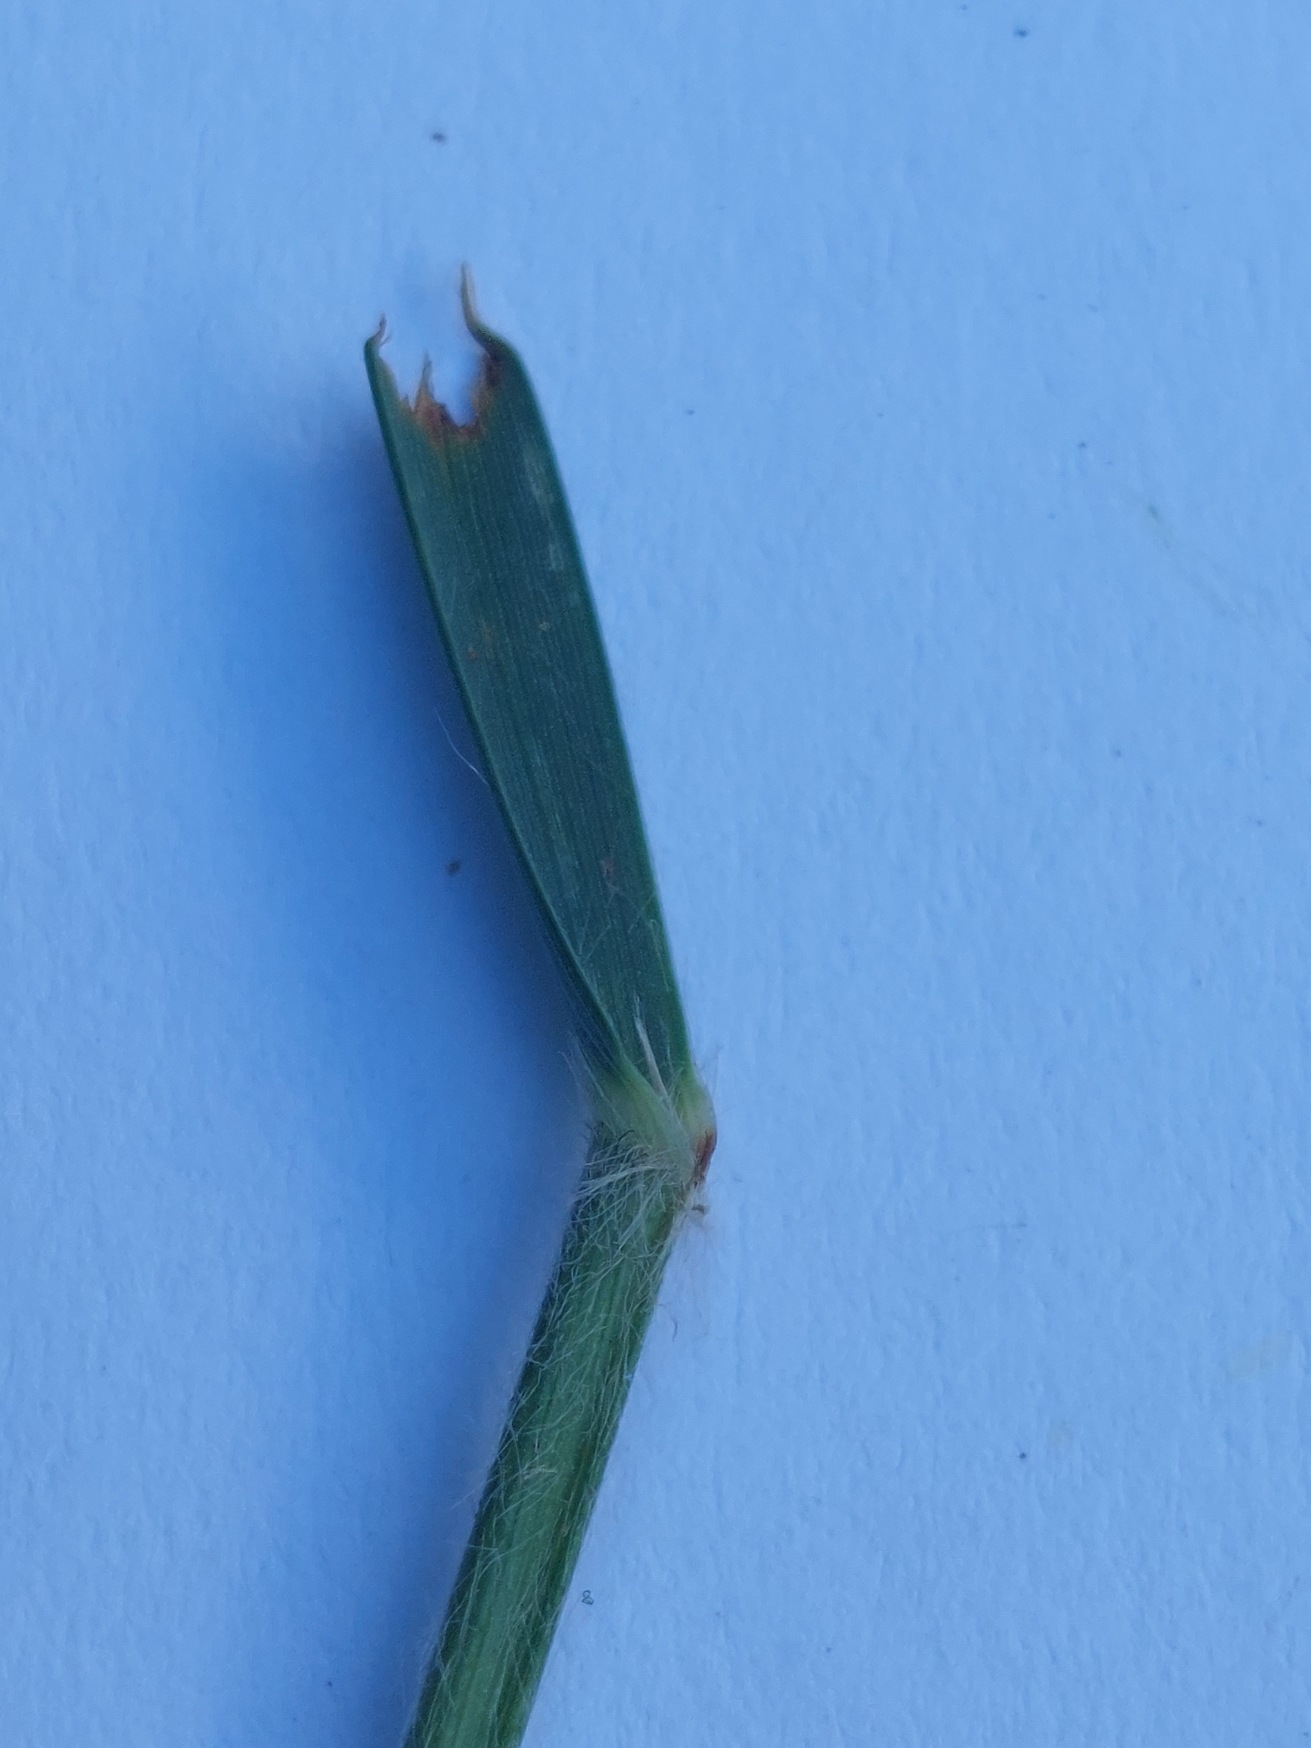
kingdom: Plantae
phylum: Tracheophyta
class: Liliopsida
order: Poales
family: Poaceae
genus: Danthonia
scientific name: Danthonia decumbens
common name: Tandbælg
